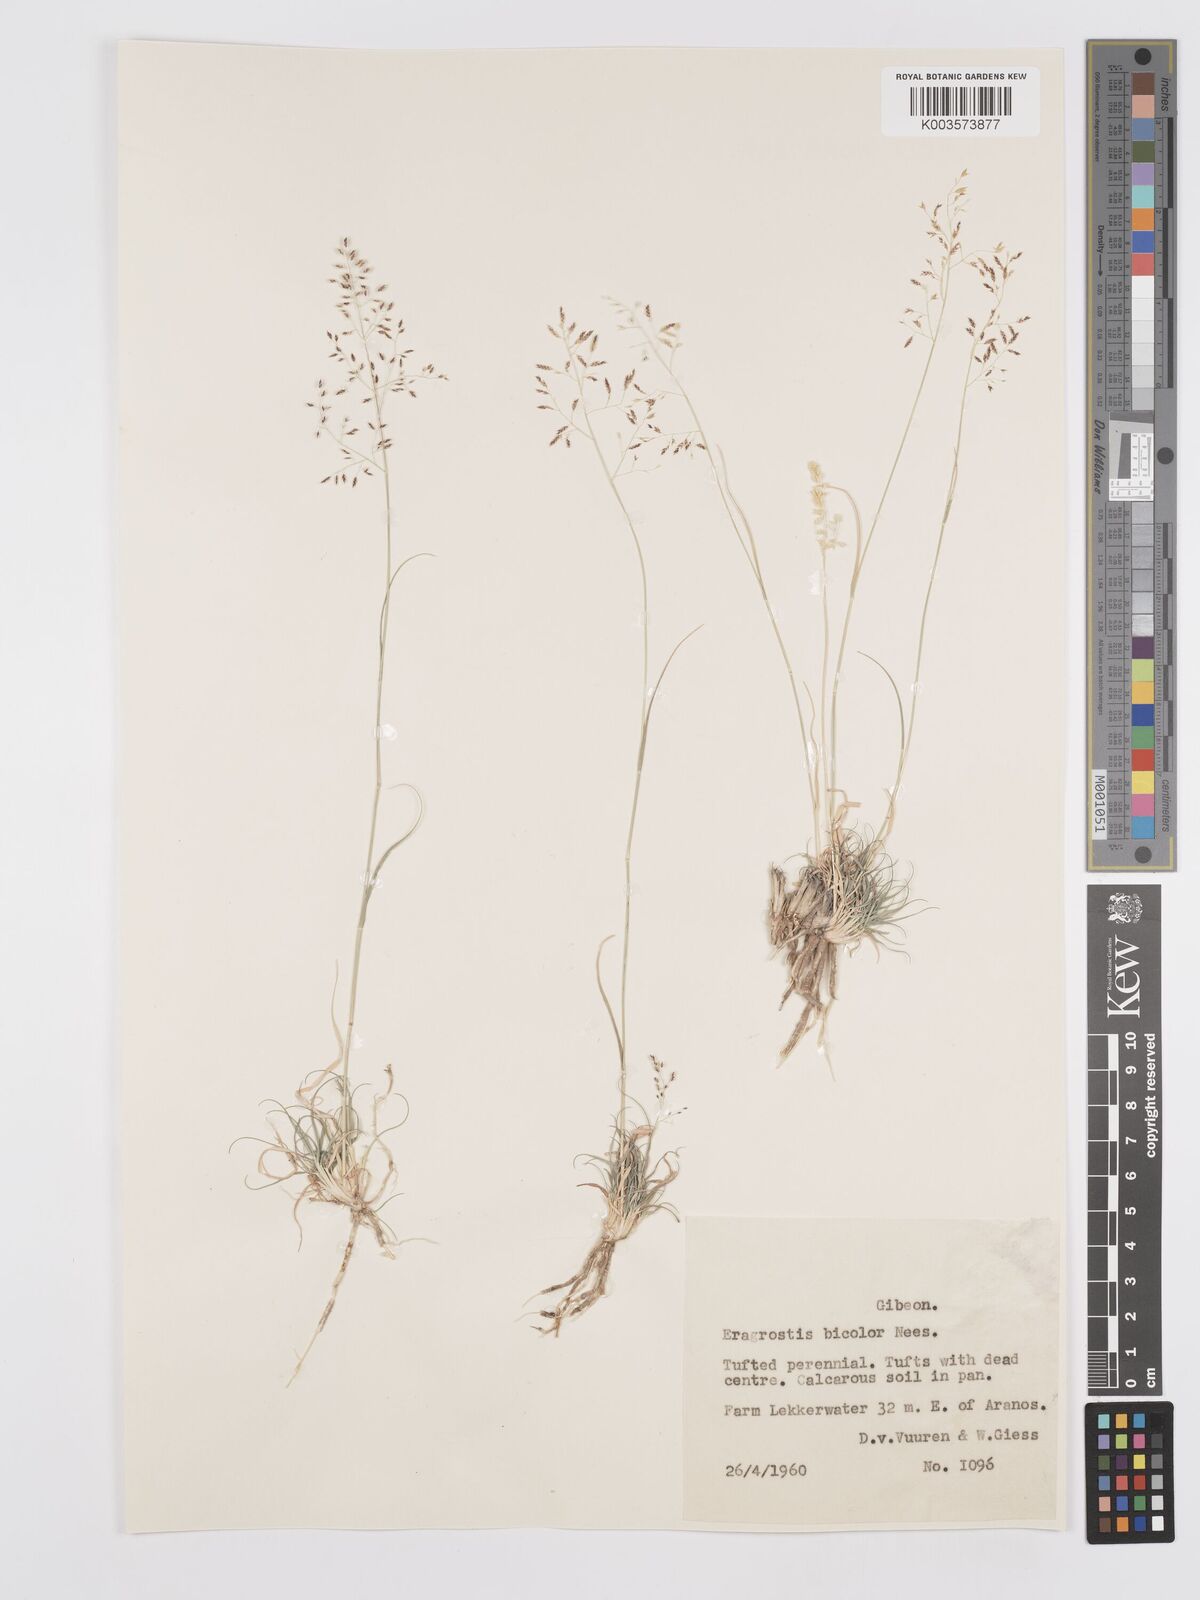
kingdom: Plantae
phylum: Tracheophyta
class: Liliopsida
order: Poales
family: Poaceae
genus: Eragrostis
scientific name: Eragrostis
